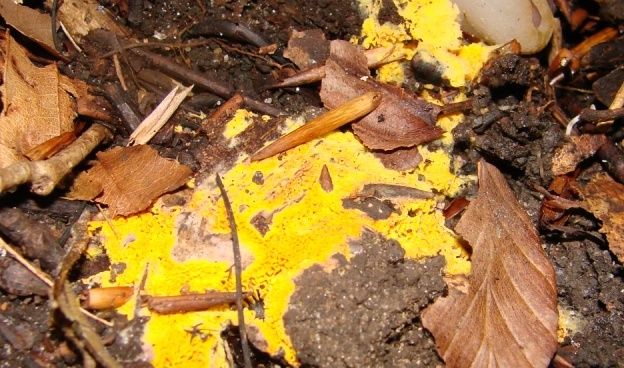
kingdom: Fungi
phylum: Basidiomycota
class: Agaricomycetes
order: Agaricales
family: Stephanosporaceae
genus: Lindtneria
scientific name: Lindtneria trachyspora
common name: labyrint-citrushinde
